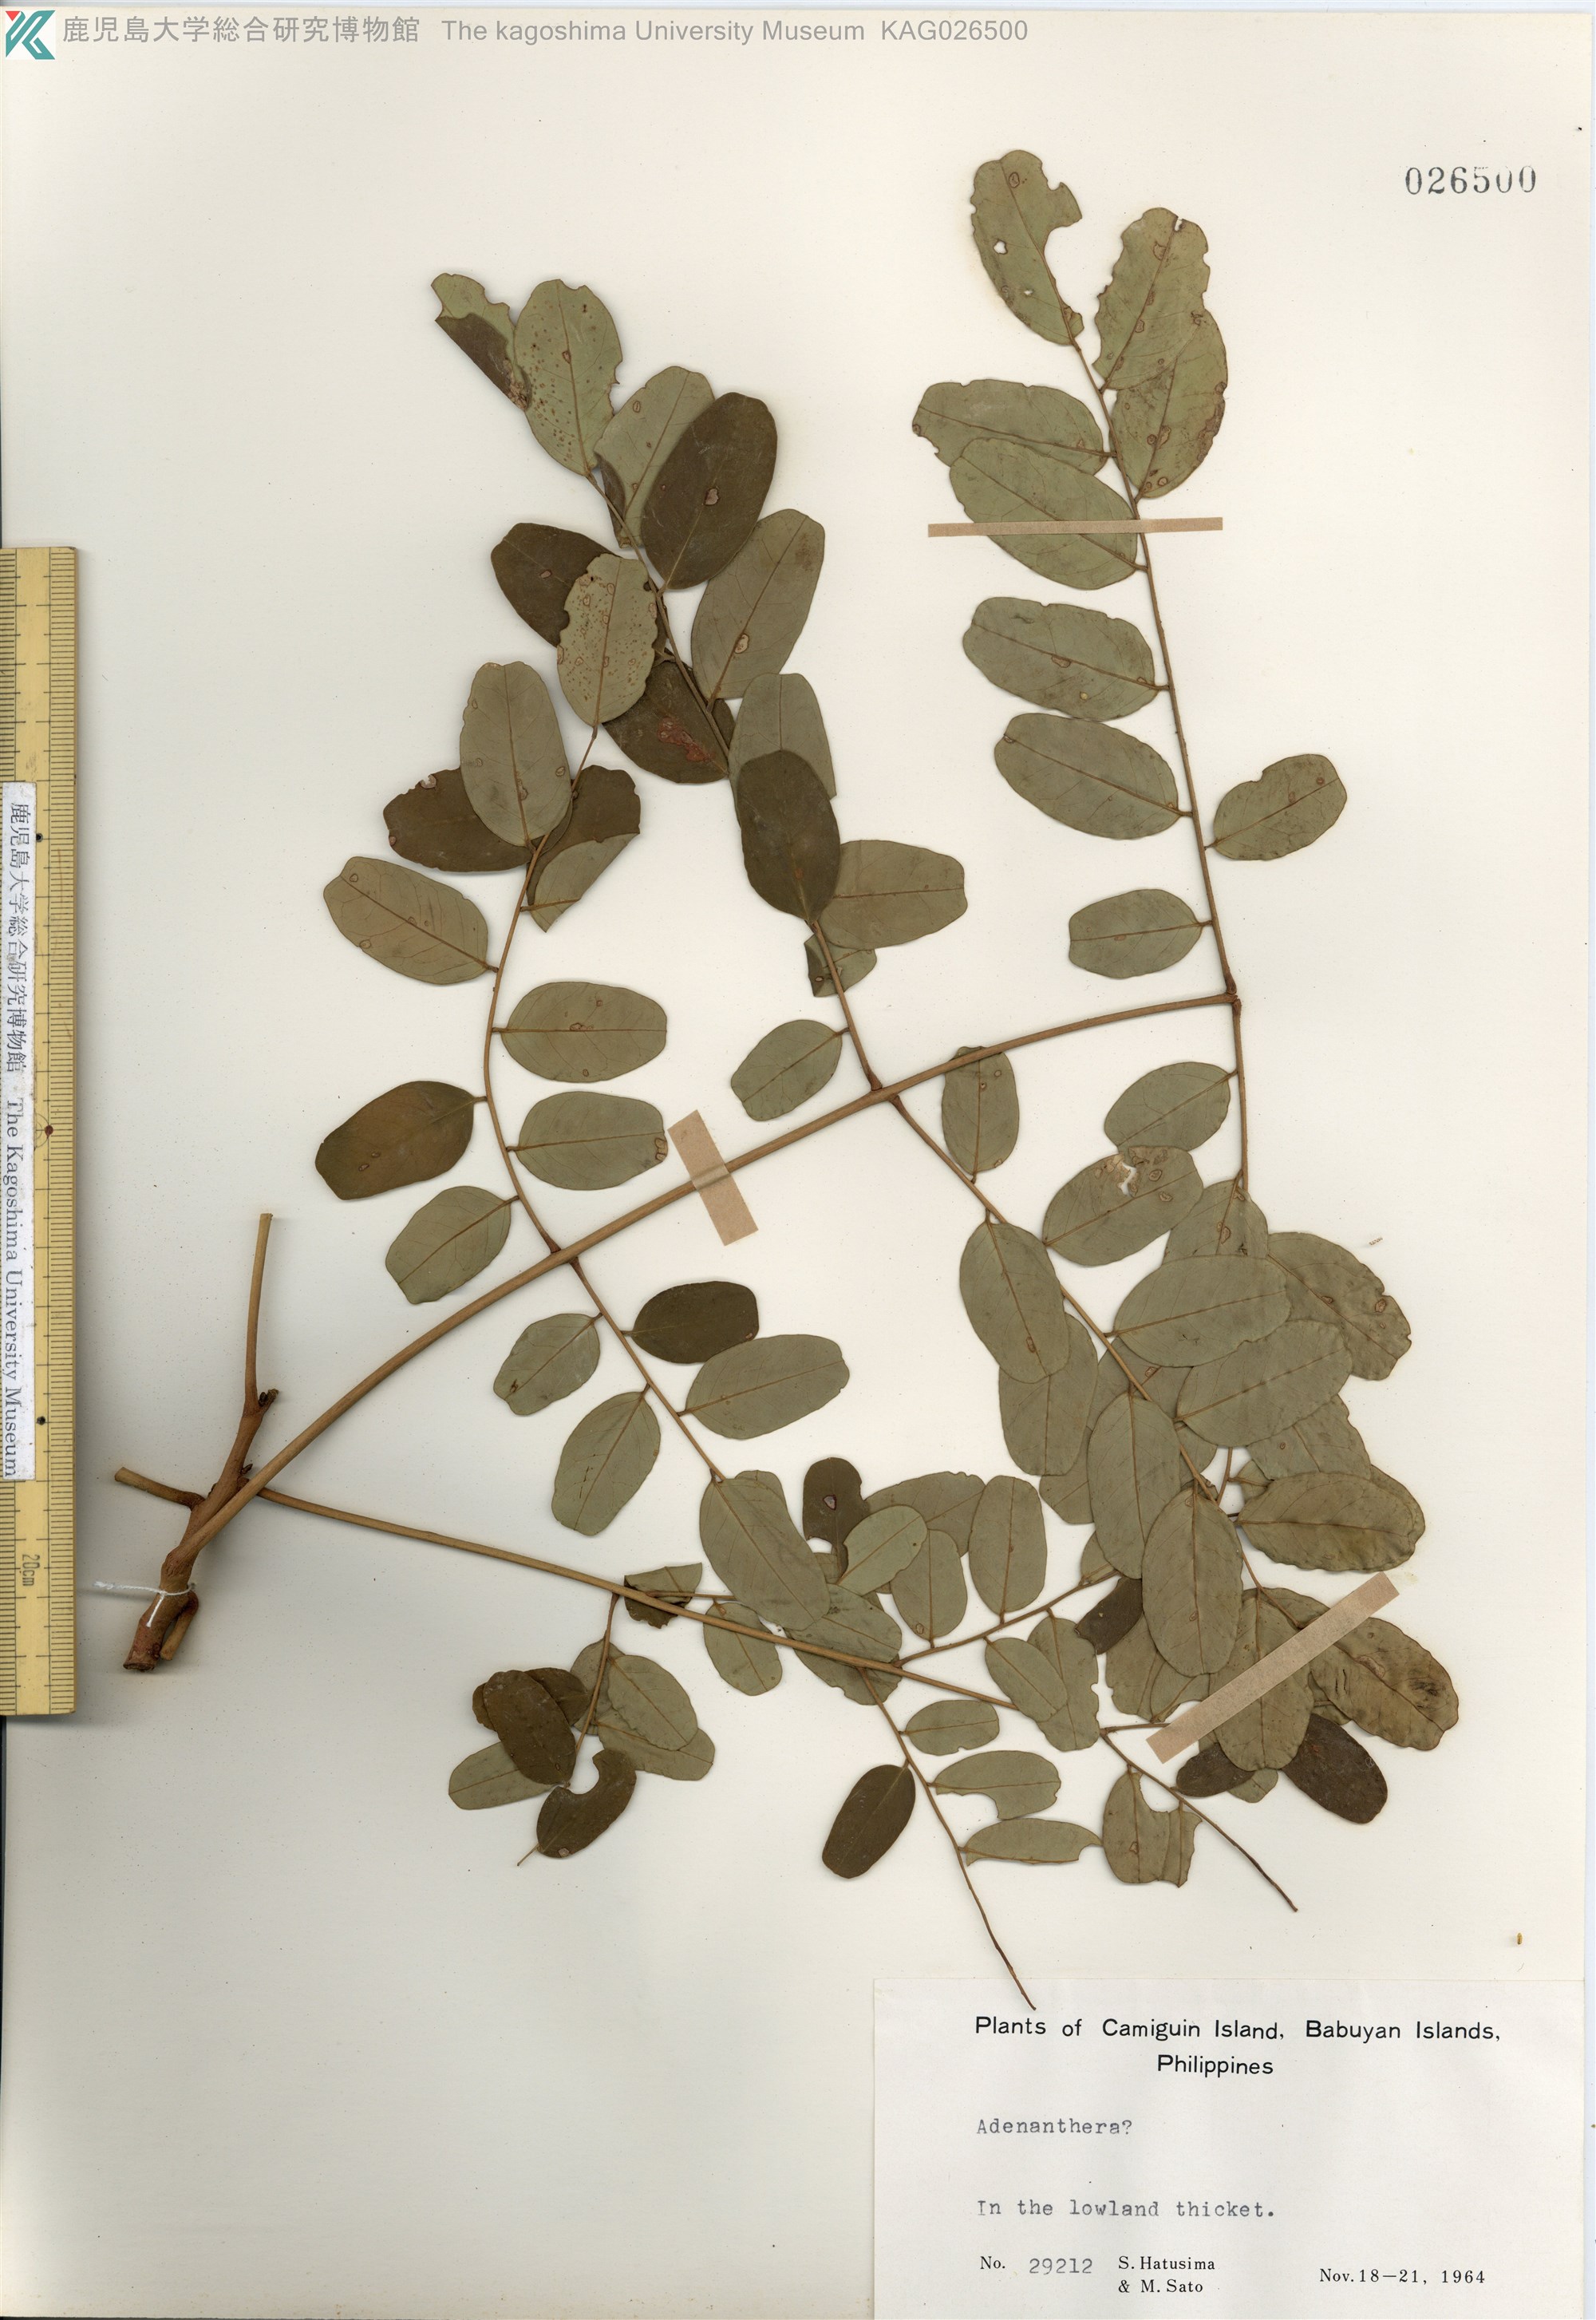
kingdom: Plantae
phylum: Tracheophyta
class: Magnoliopsida
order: Fabales
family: Fabaceae
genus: Adenanthera
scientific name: Adenanthera pavonina
